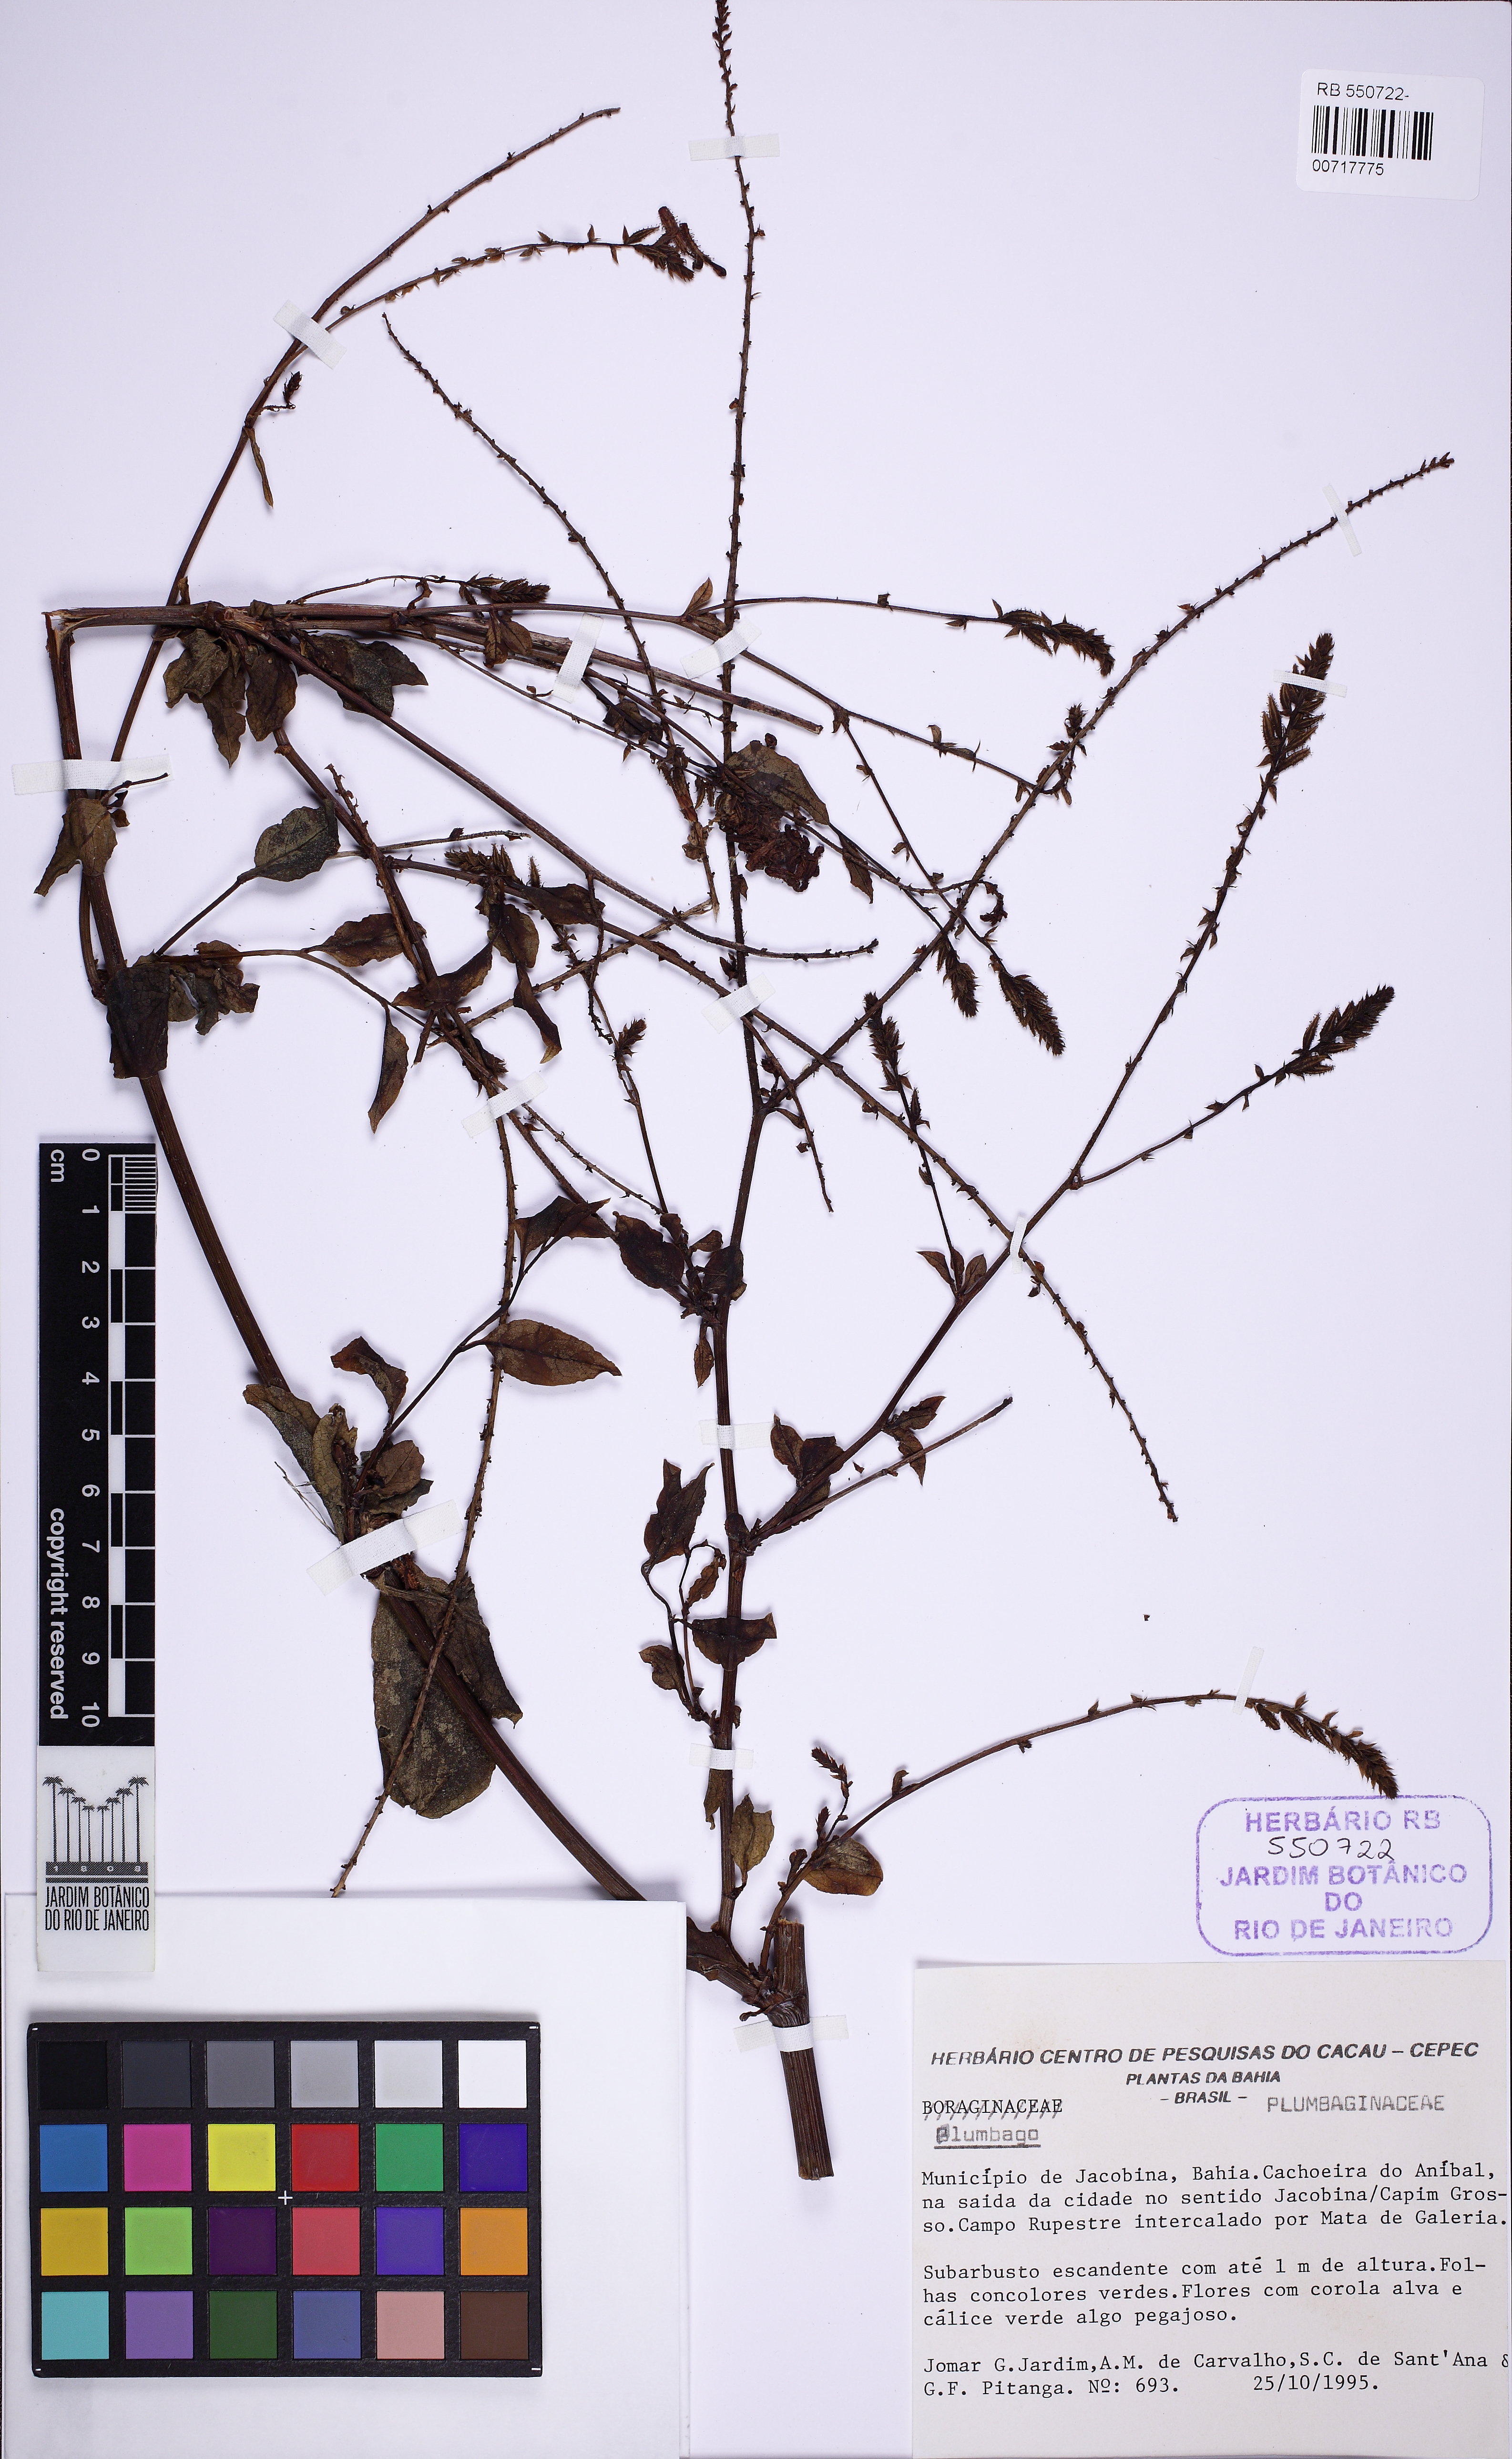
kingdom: Plantae
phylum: Tracheophyta
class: Magnoliopsida
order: Caryophyllales
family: Plumbaginaceae
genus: Plumbago
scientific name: Plumbago
